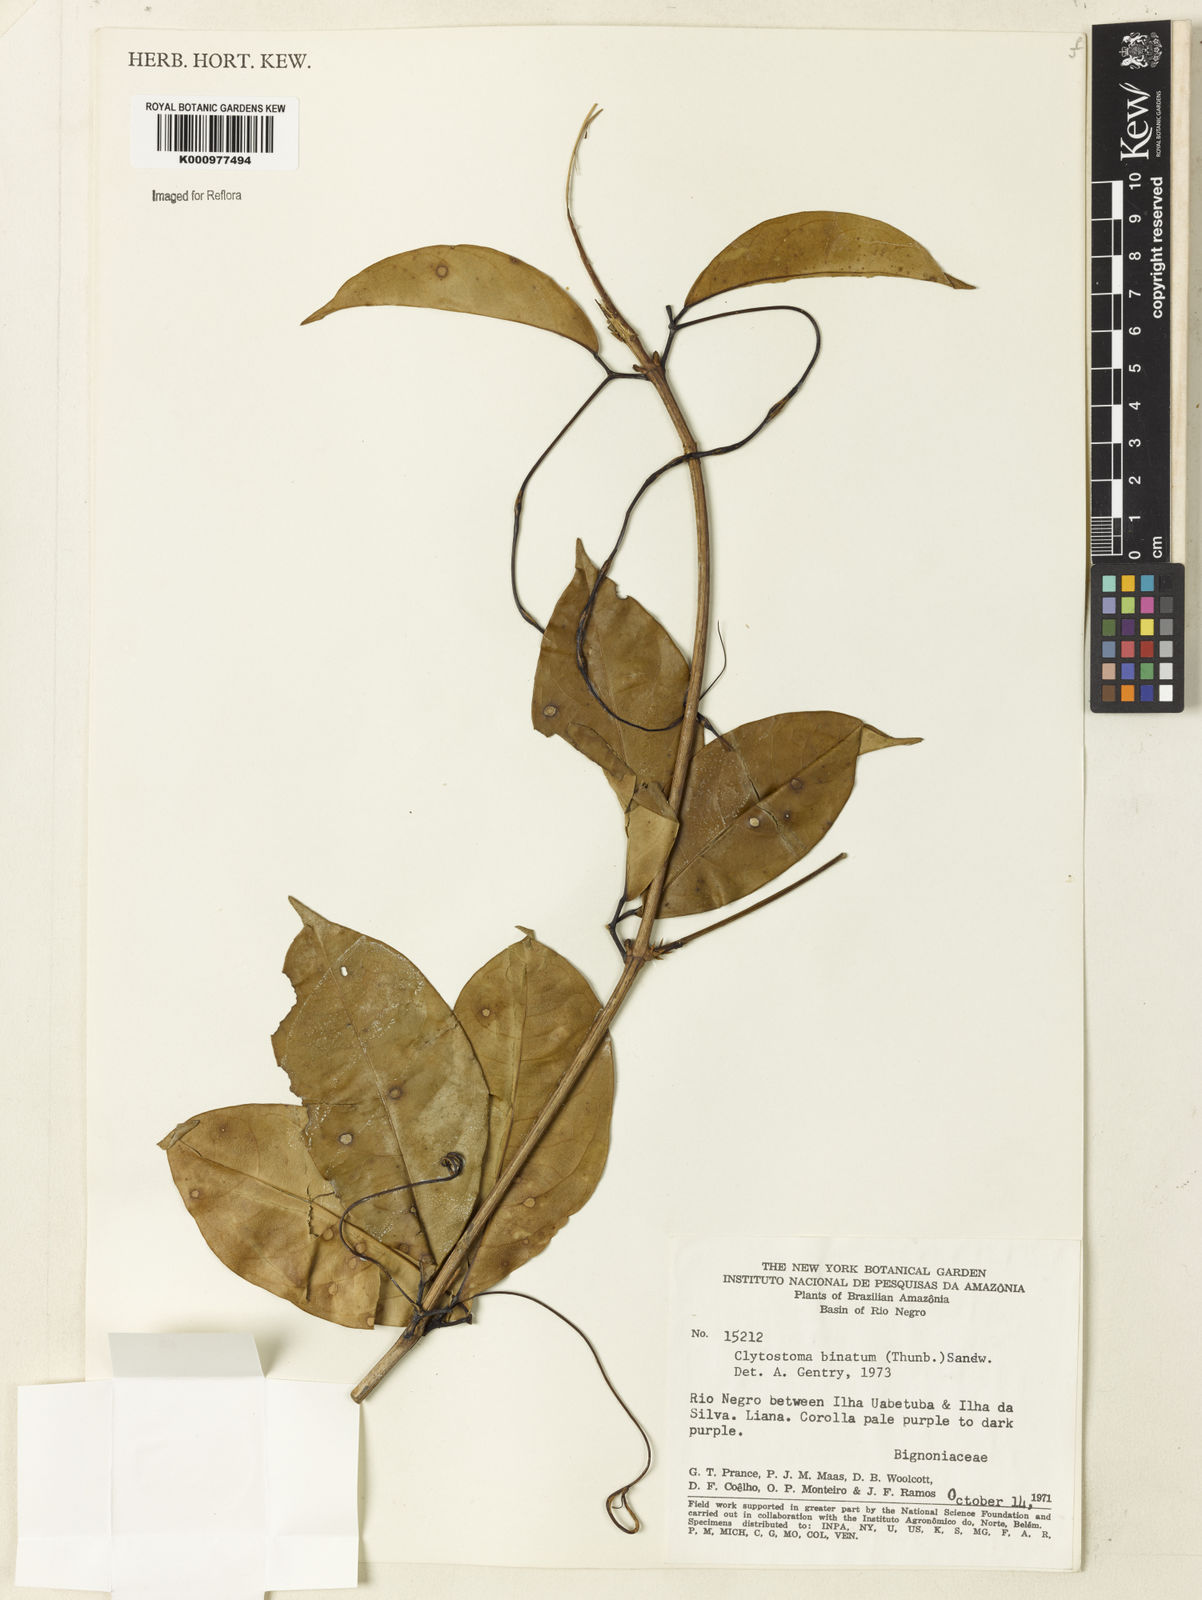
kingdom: Plantae
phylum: Tracheophyta
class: Magnoliopsida
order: Lamiales
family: Bignoniaceae
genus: Bignonia
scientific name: Bignonia binata
